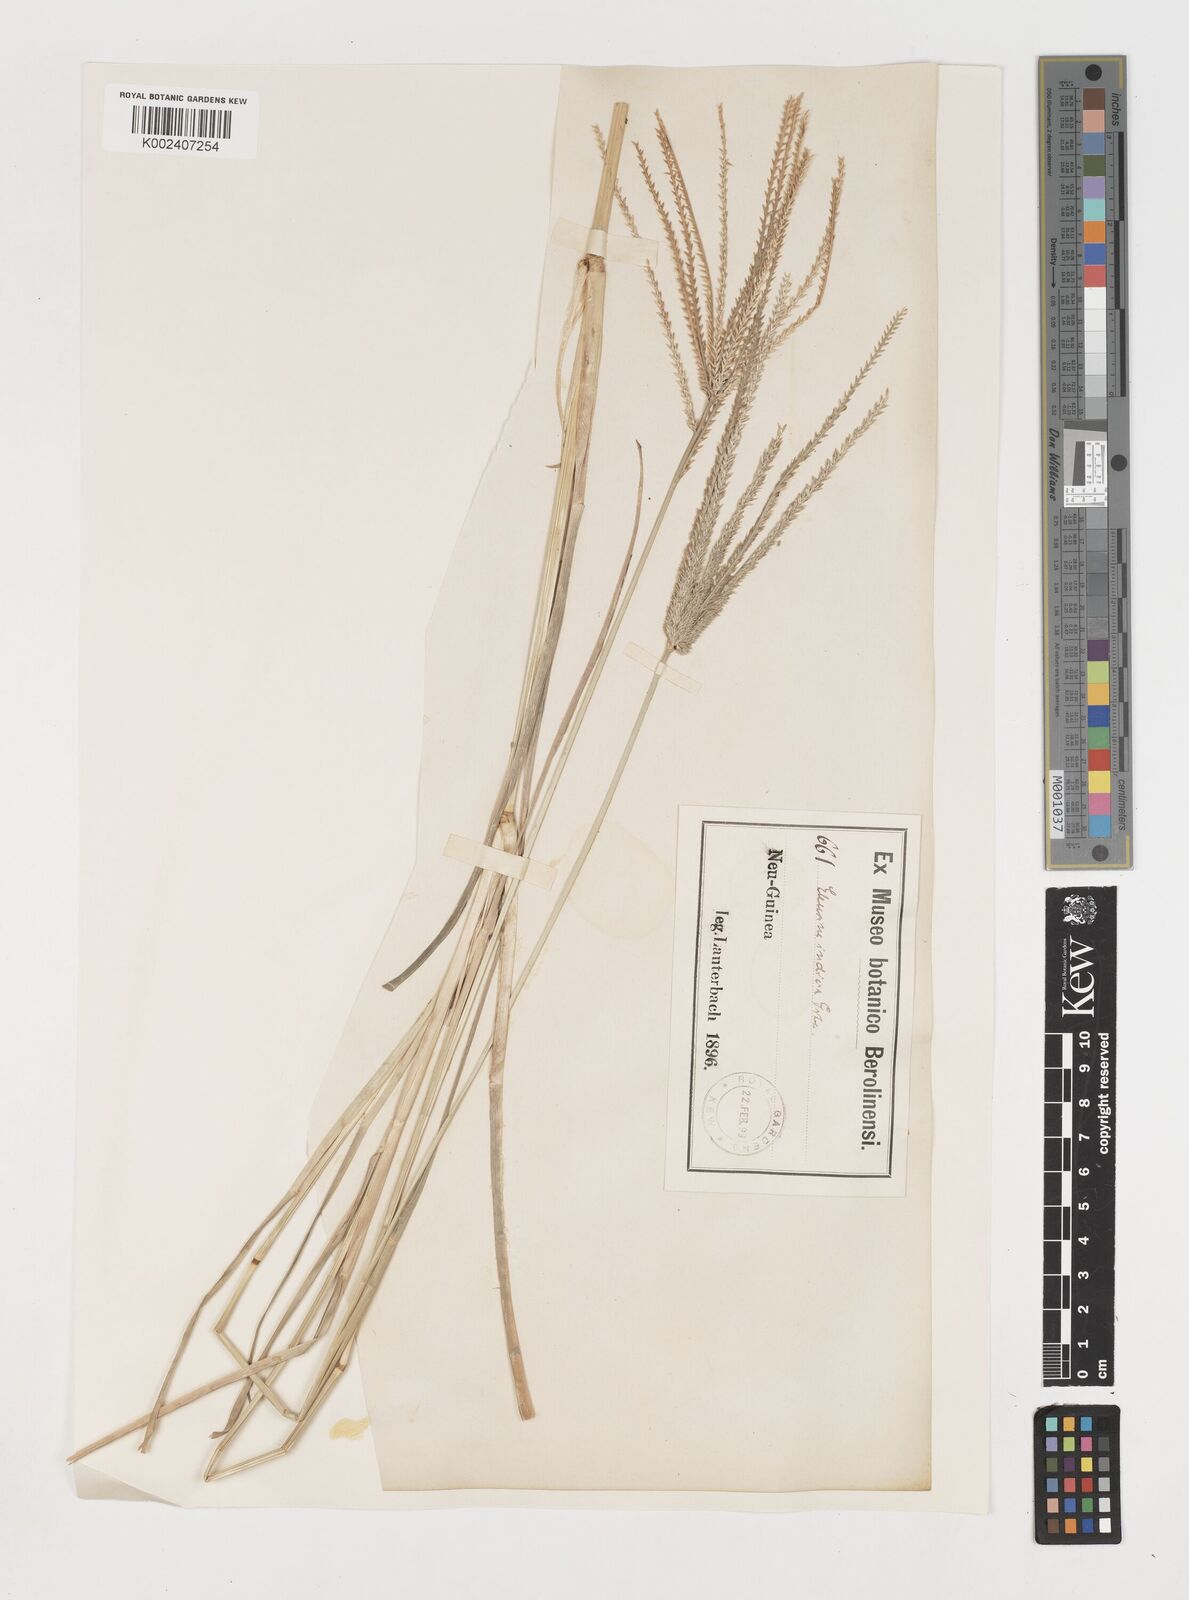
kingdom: Plantae
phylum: Tracheophyta
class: Liliopsida
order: Poales
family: Poaceae
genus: Eleusine
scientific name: Eleusine indica
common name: Yard-grass
